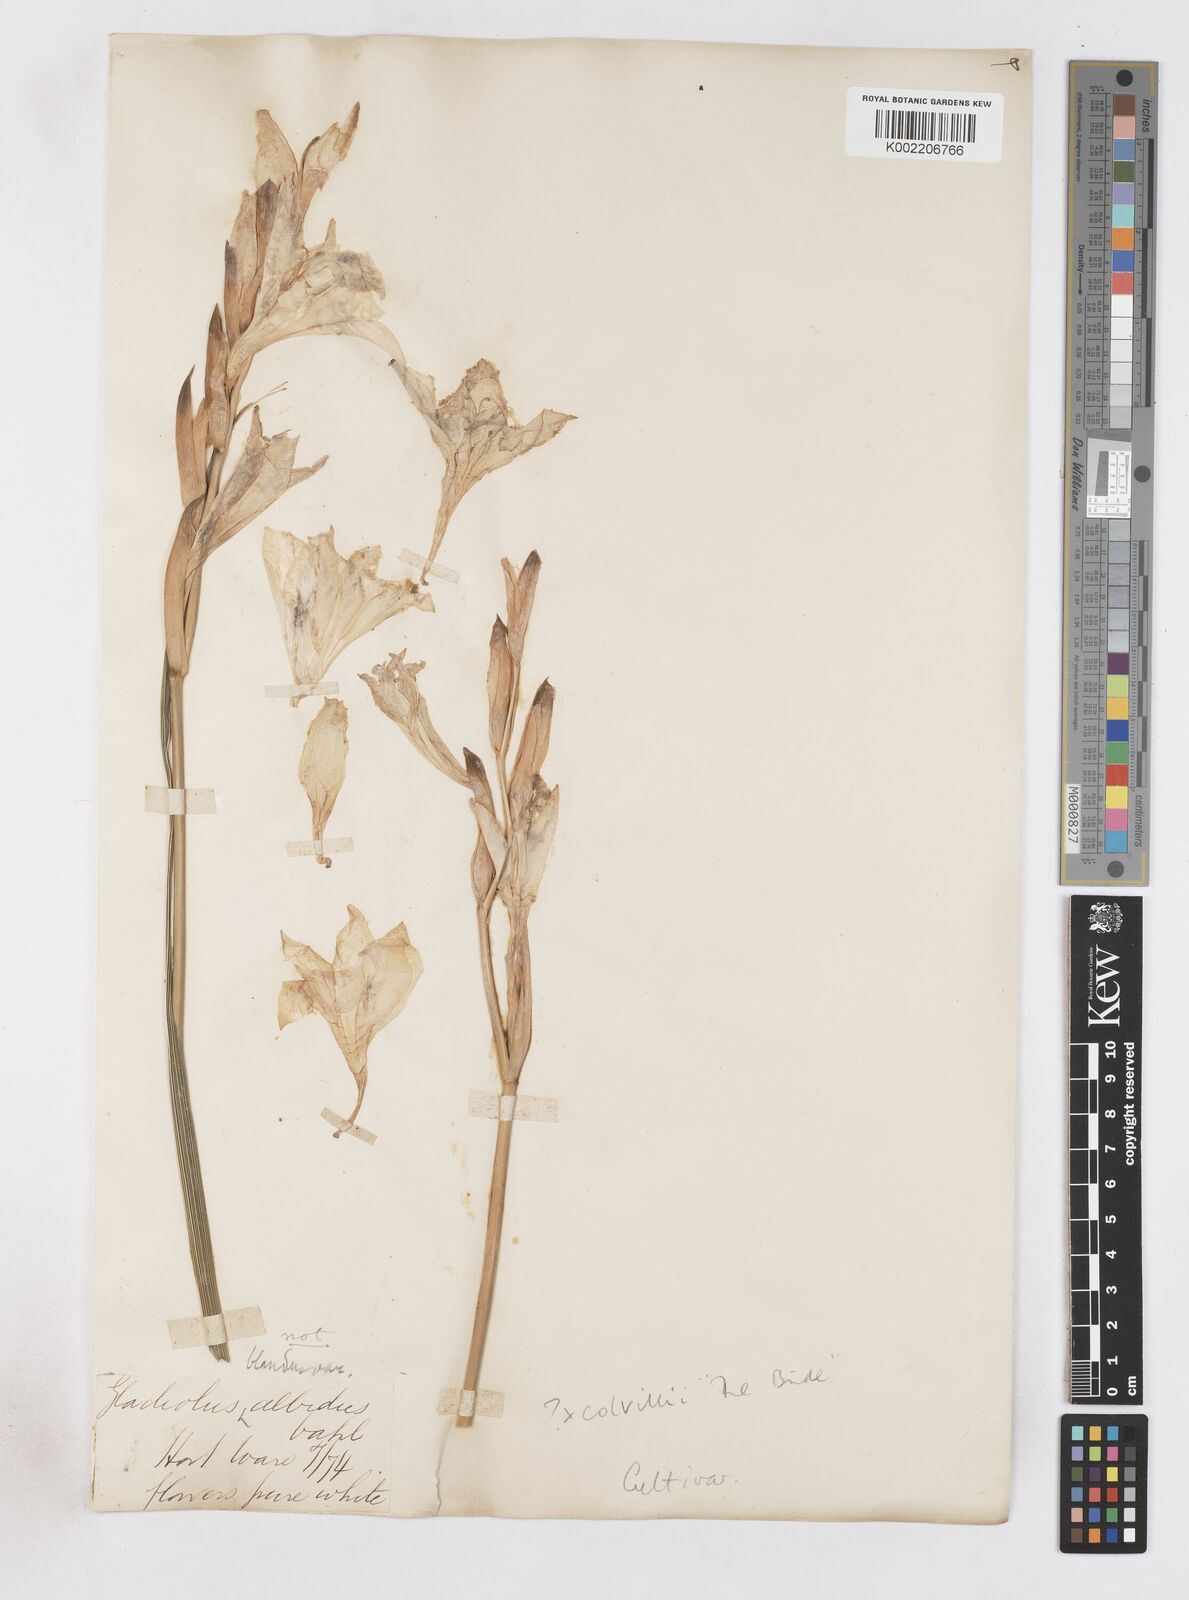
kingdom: Plantae
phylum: Tracheophyta
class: Liliopsida
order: Asparagales
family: Iridaceae
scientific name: Iridaceae
